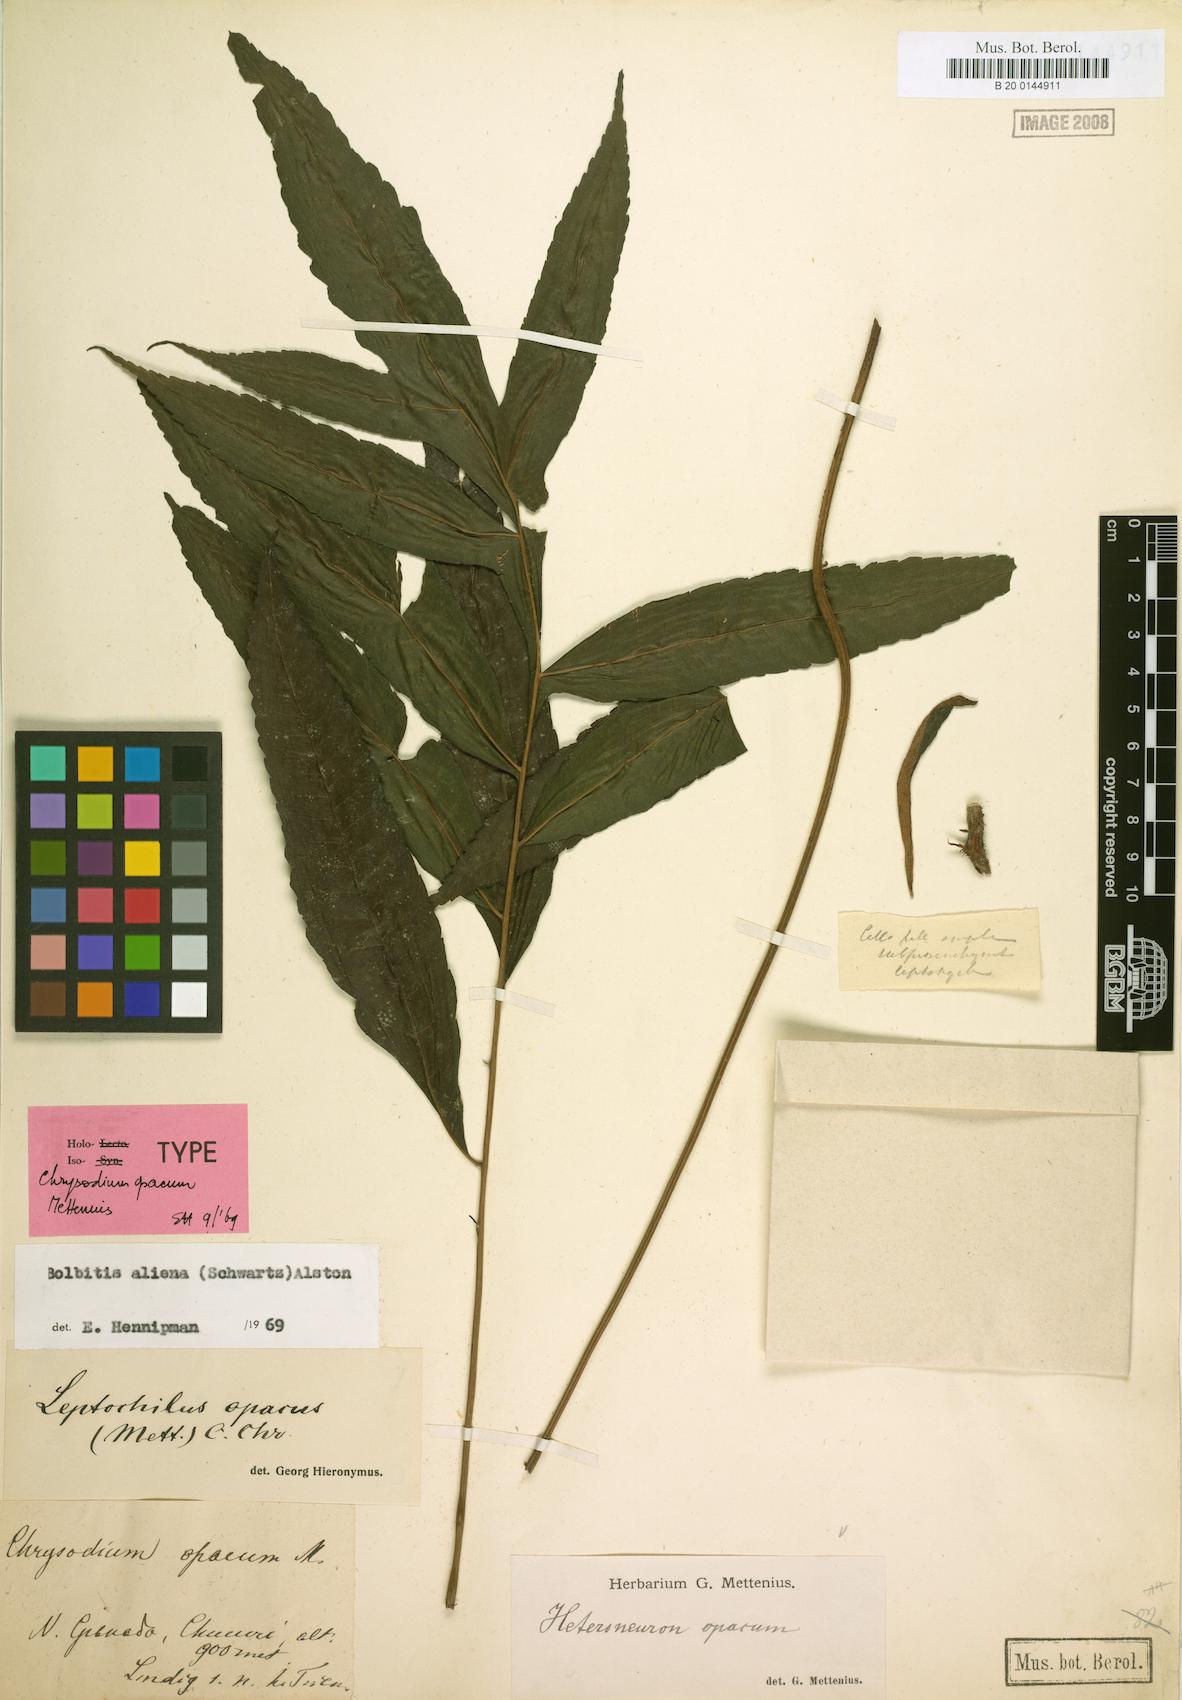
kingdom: Plantae
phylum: Tracheophyta
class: Polypodiopsida
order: Polypodiales
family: Dryopteridaceae
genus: Bolbitis
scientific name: Bolbitis aliena
